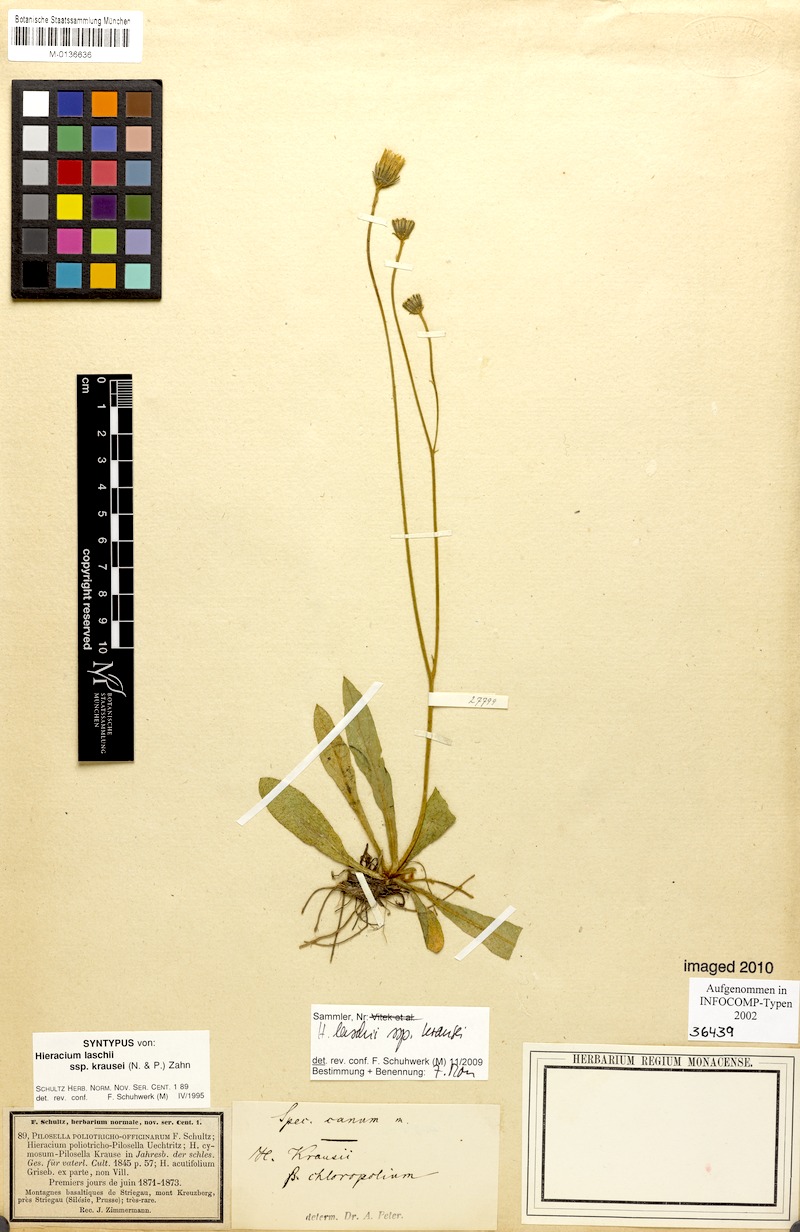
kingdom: Plantae
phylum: Tracheophyta
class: Magnoliopsida
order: Asterales
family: Asteraceae
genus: Pilosella
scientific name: Pilosella acutifolia
